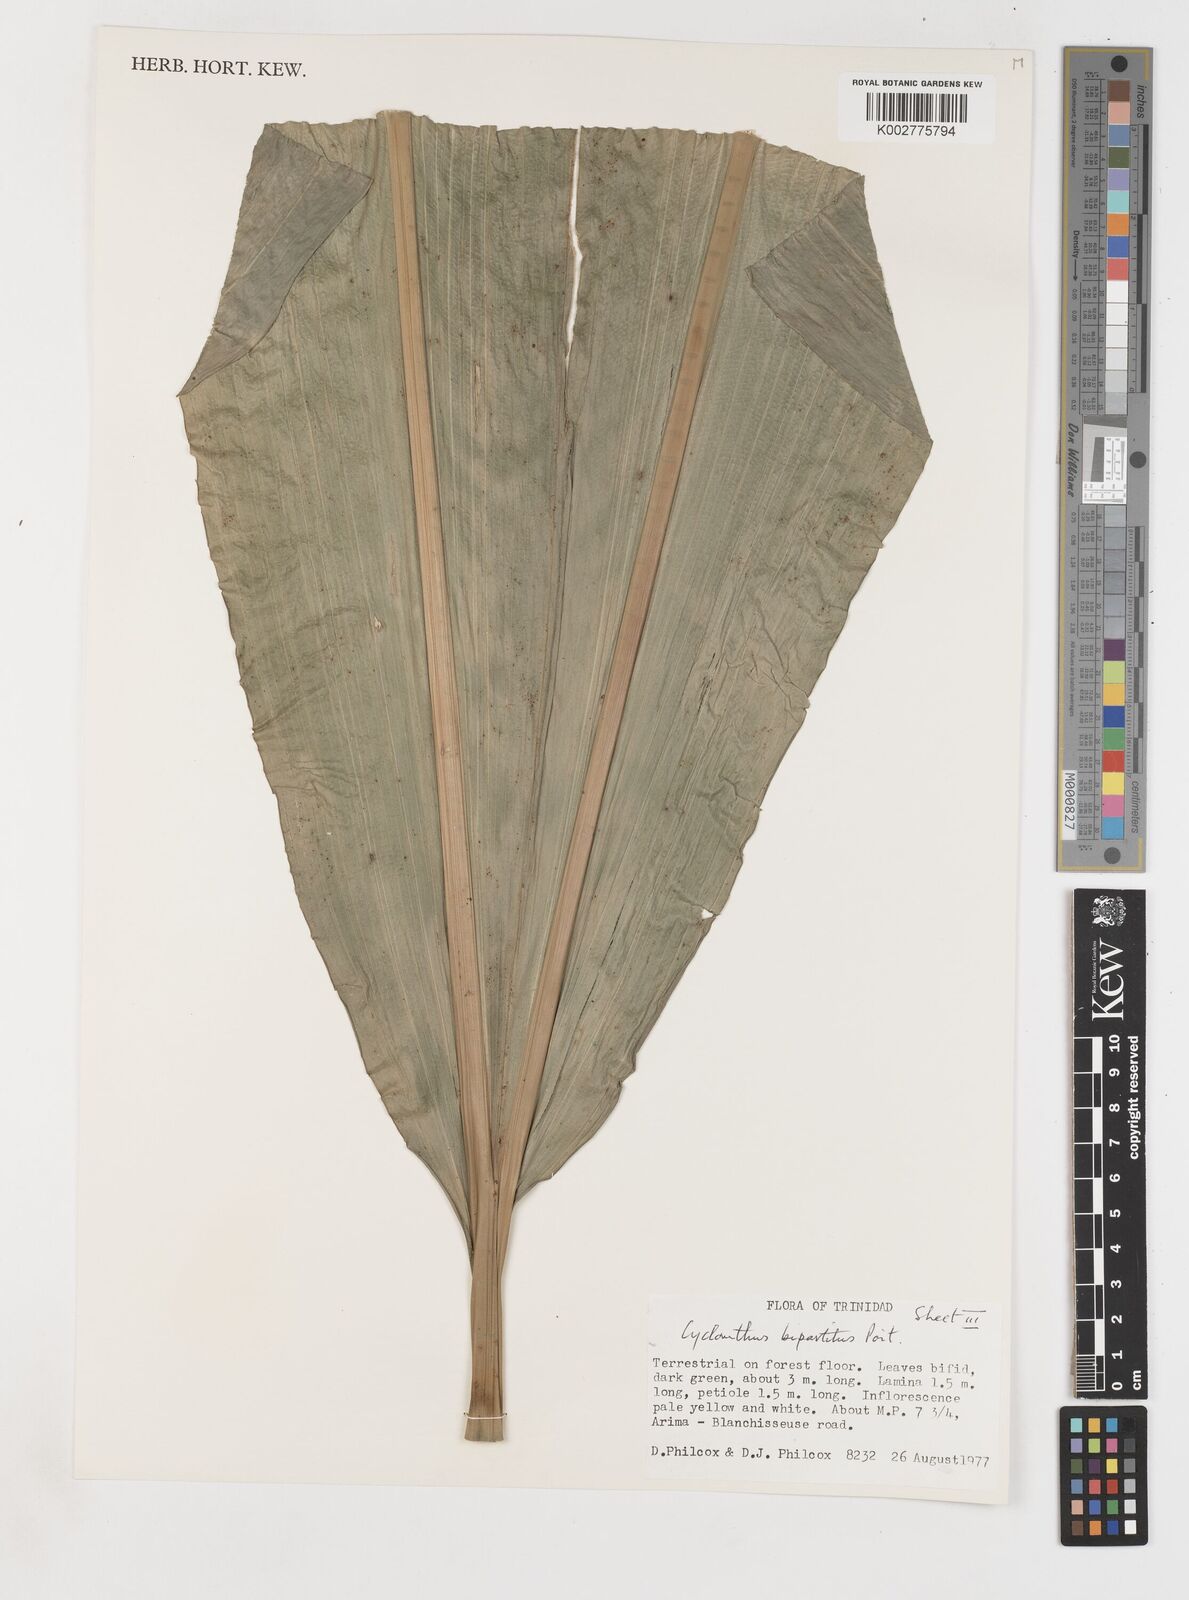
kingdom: Plantae
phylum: Tracheophyta
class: Liliopsida
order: Pandanales
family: Cyclanthaceae
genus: Cyclanthus
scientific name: Cyclanthus bipartitus
